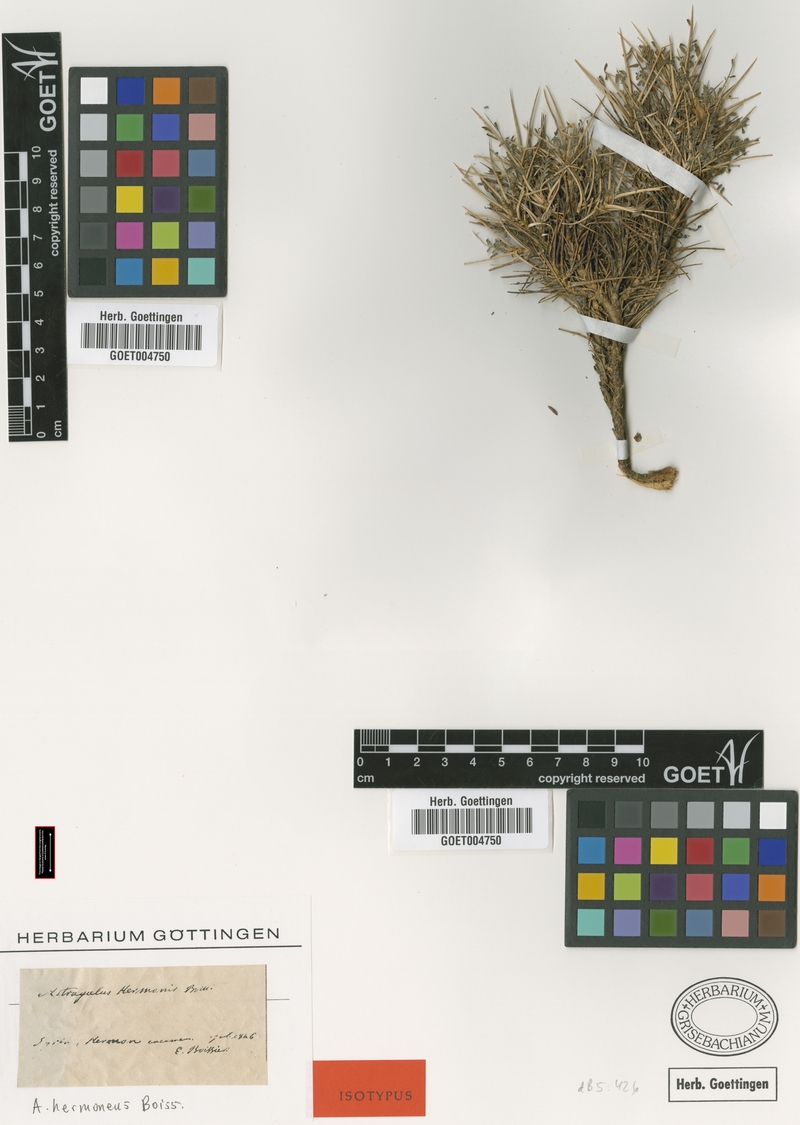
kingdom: Plantae
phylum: Tracheophyta
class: Magnoliopsida
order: Fabales
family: Fabaceae
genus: Astragalus
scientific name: Astragalus hermoneus
